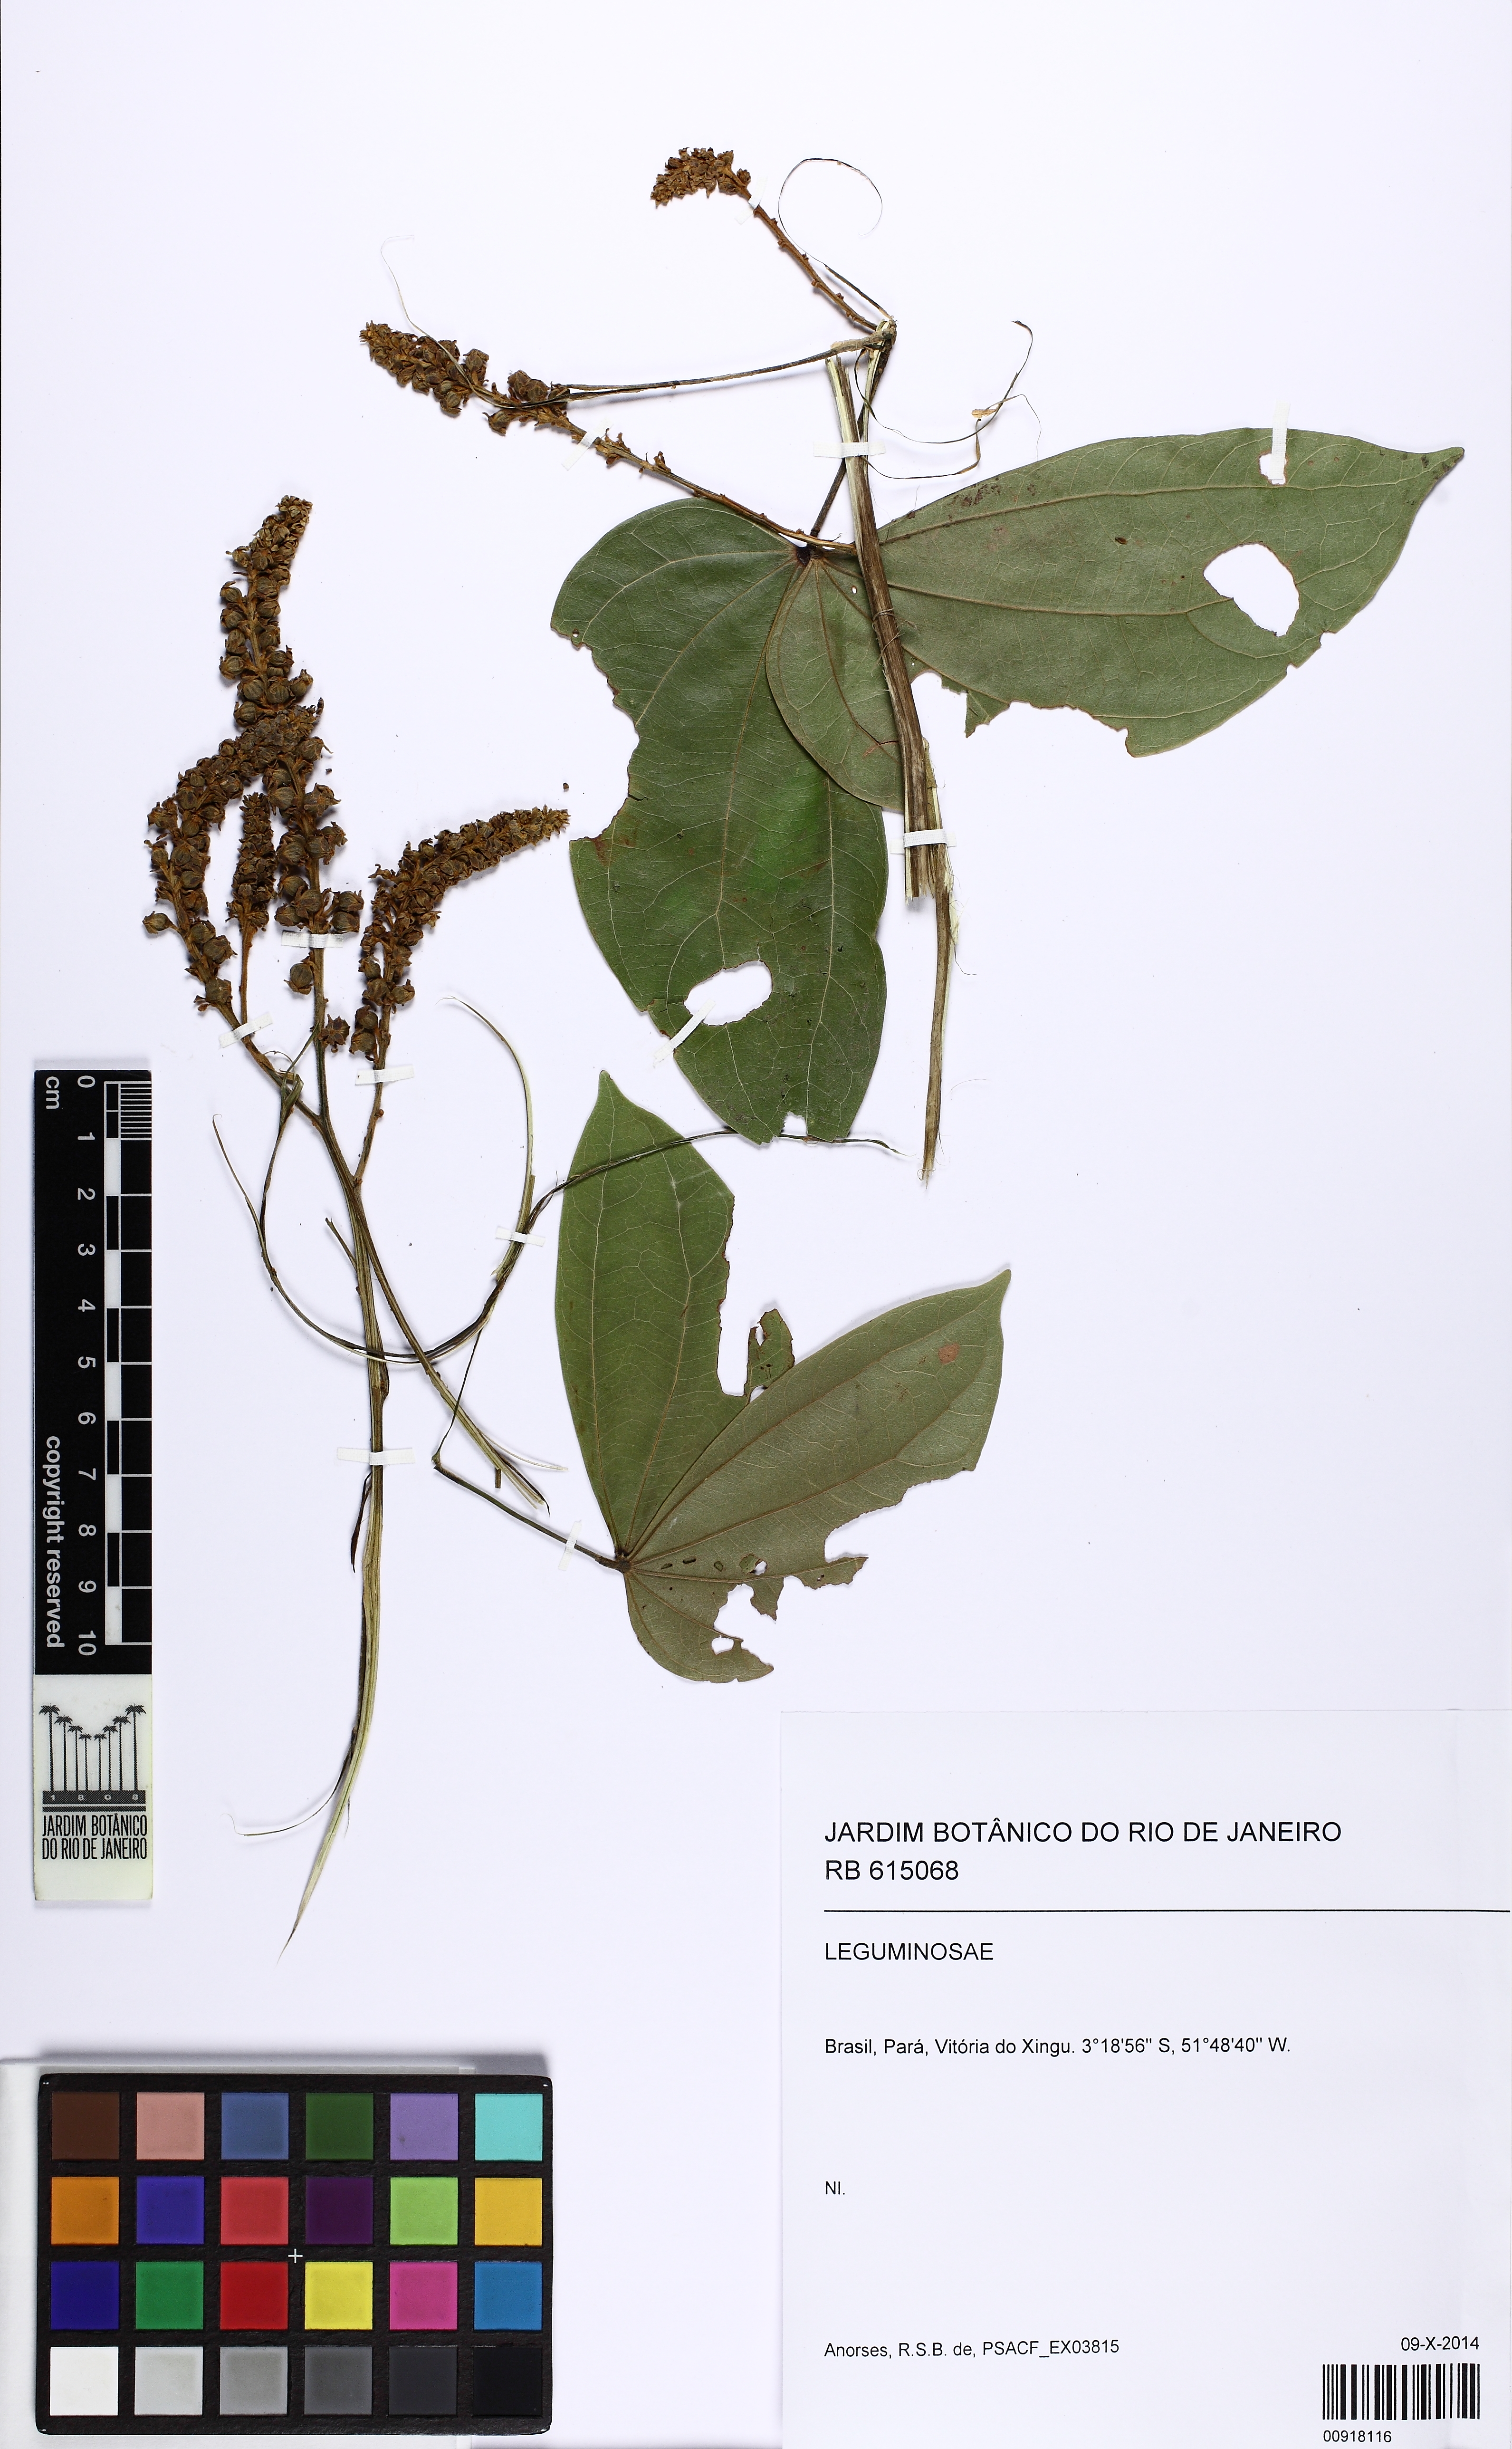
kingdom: Plantae
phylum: Tracheophyta
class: Magnoliopsida
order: Fabales
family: Fabaceae
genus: Schnella
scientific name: Schnella outimouta
